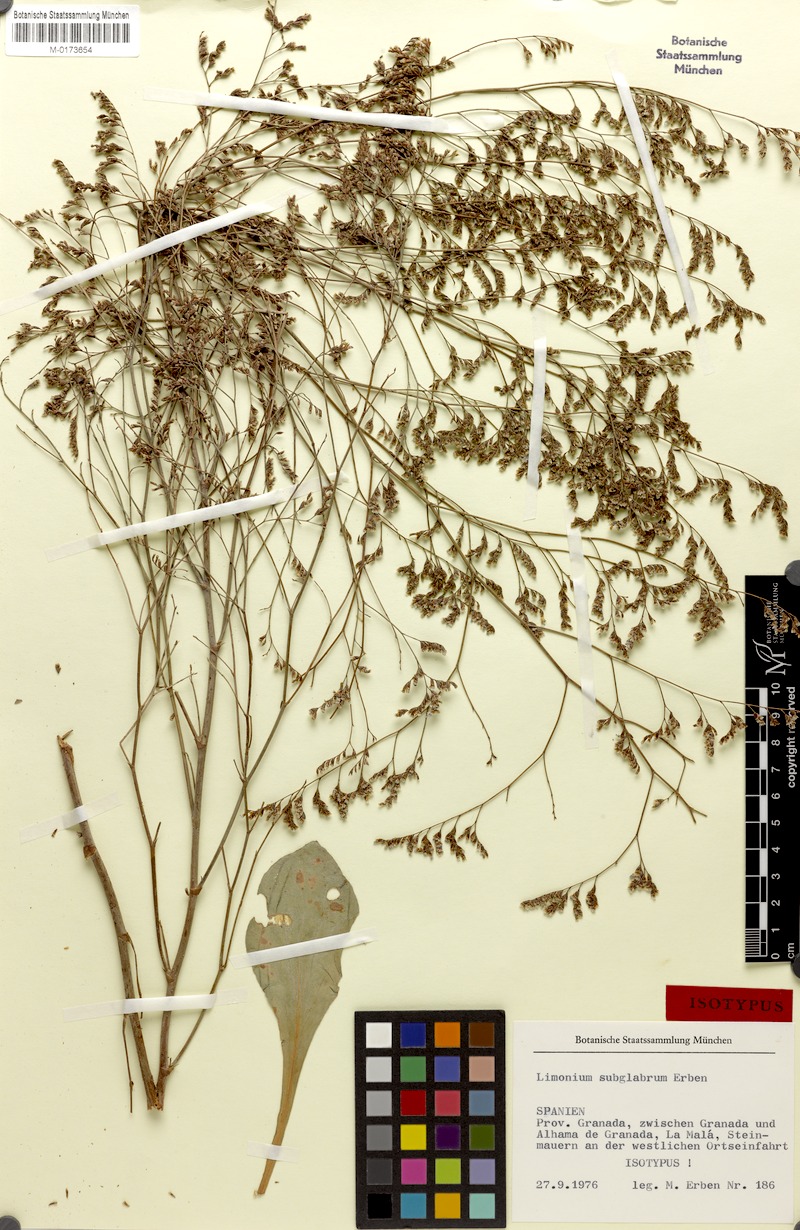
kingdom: Plantae
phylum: Tracheophyta
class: Magnoliopsida
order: Caryophyllales
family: Plumbaginaceae
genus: Limonium
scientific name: Limonium subglabrum
